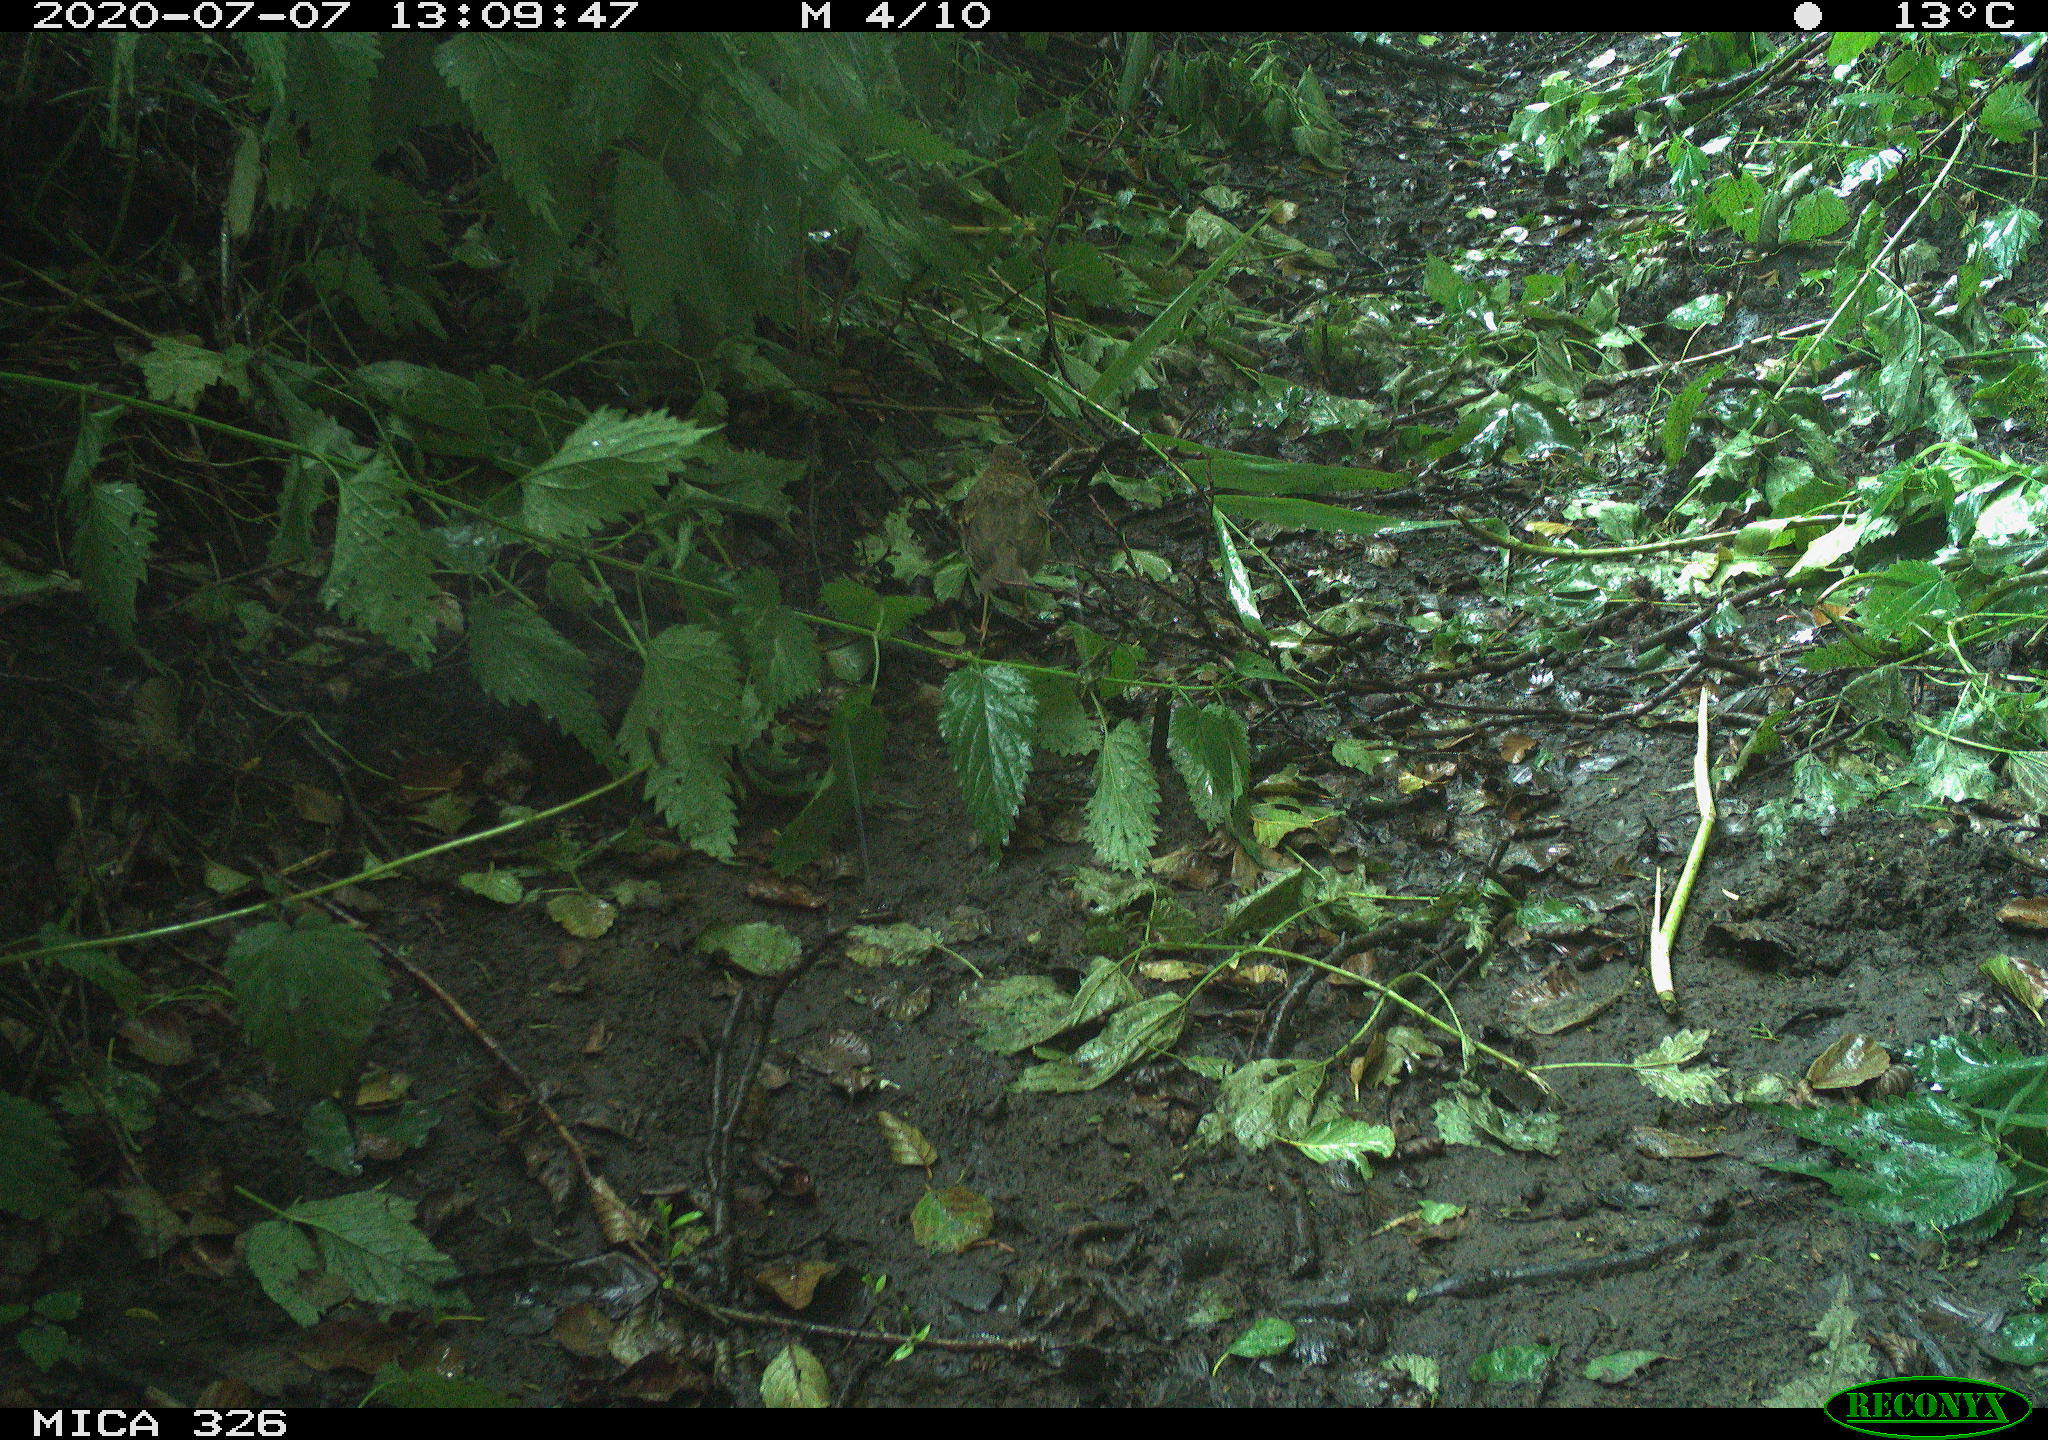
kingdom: Animalia
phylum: Chordata
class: Aves
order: Passeriformes
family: Turdidae
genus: Turdus
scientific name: Turdus philomelos
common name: Song thrush
